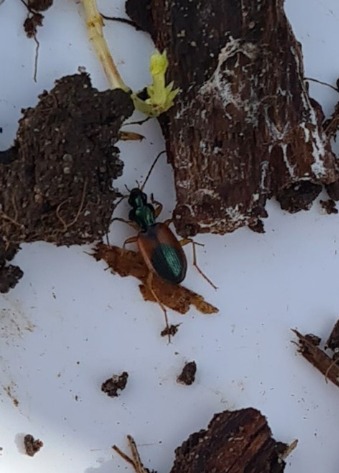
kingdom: Animalia
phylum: Arthropoda
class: Insecta
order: Coleoptera
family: Carabidae
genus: Anchomenus
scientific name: Anchomenus dorsalis
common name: Spraglet kvikløber
